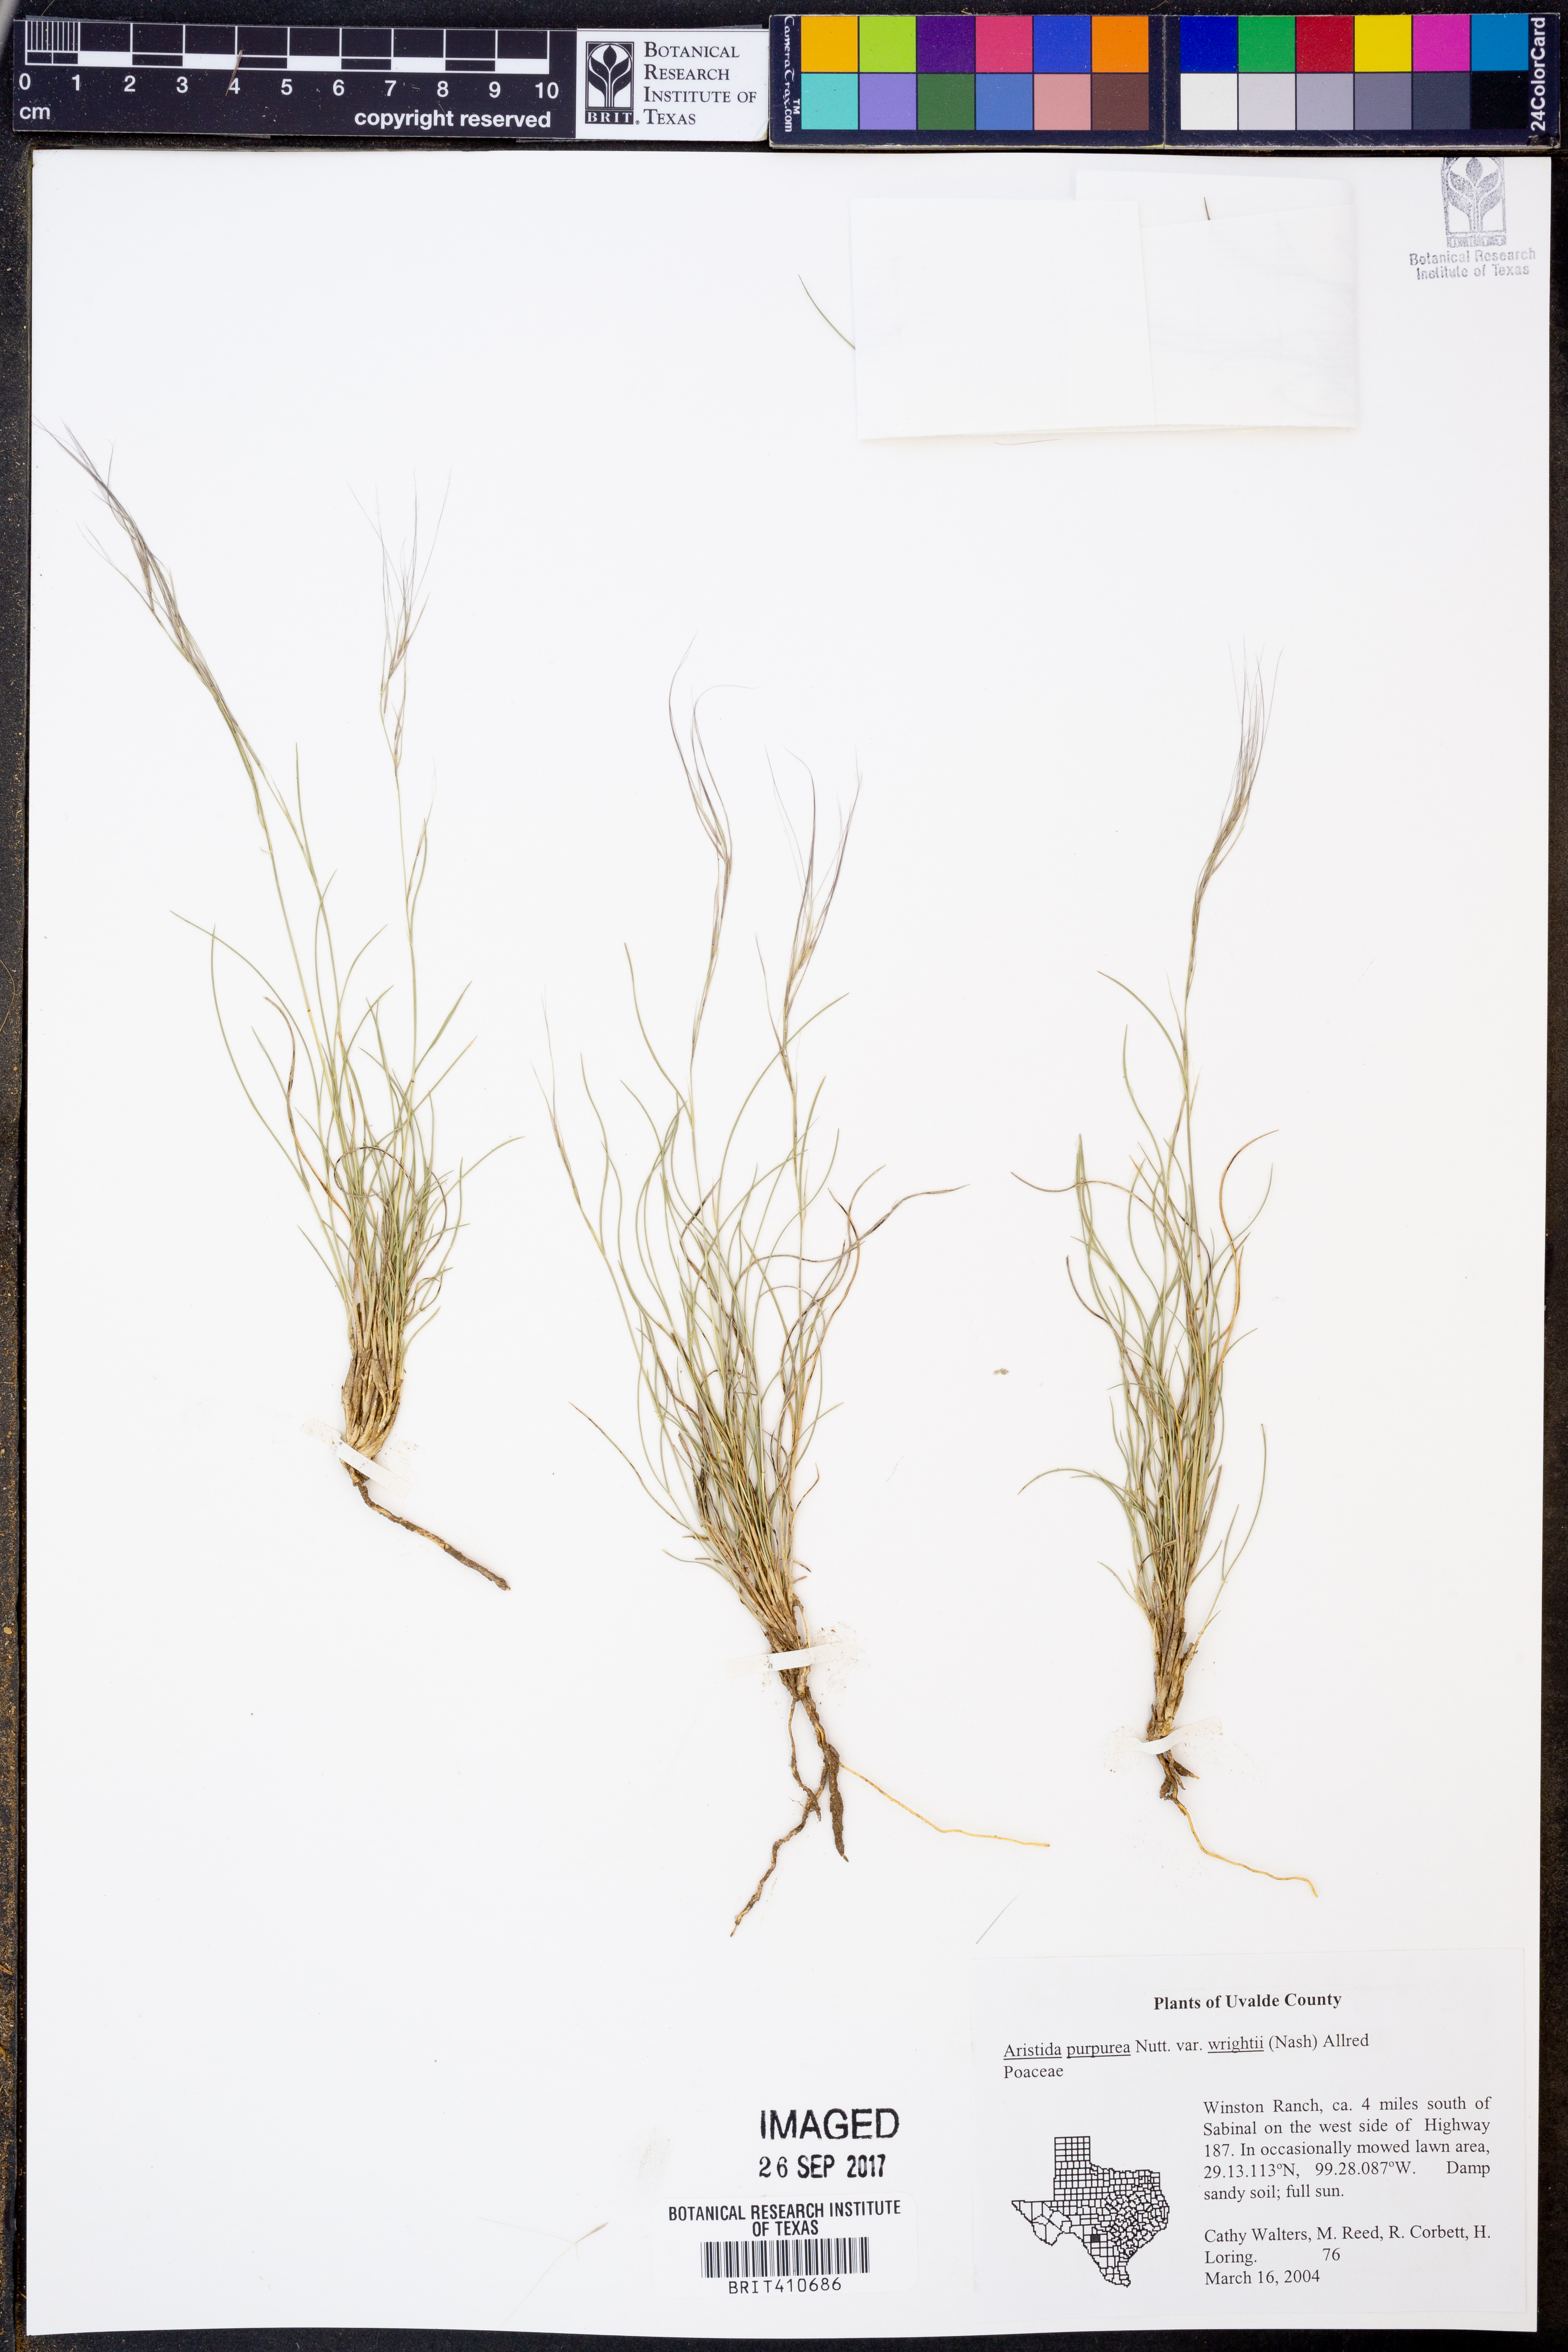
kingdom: Plantae
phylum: Tracheophyta
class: Liliopsida
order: Poales
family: Poaceae
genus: Aristida
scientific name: Aristida wrightii
